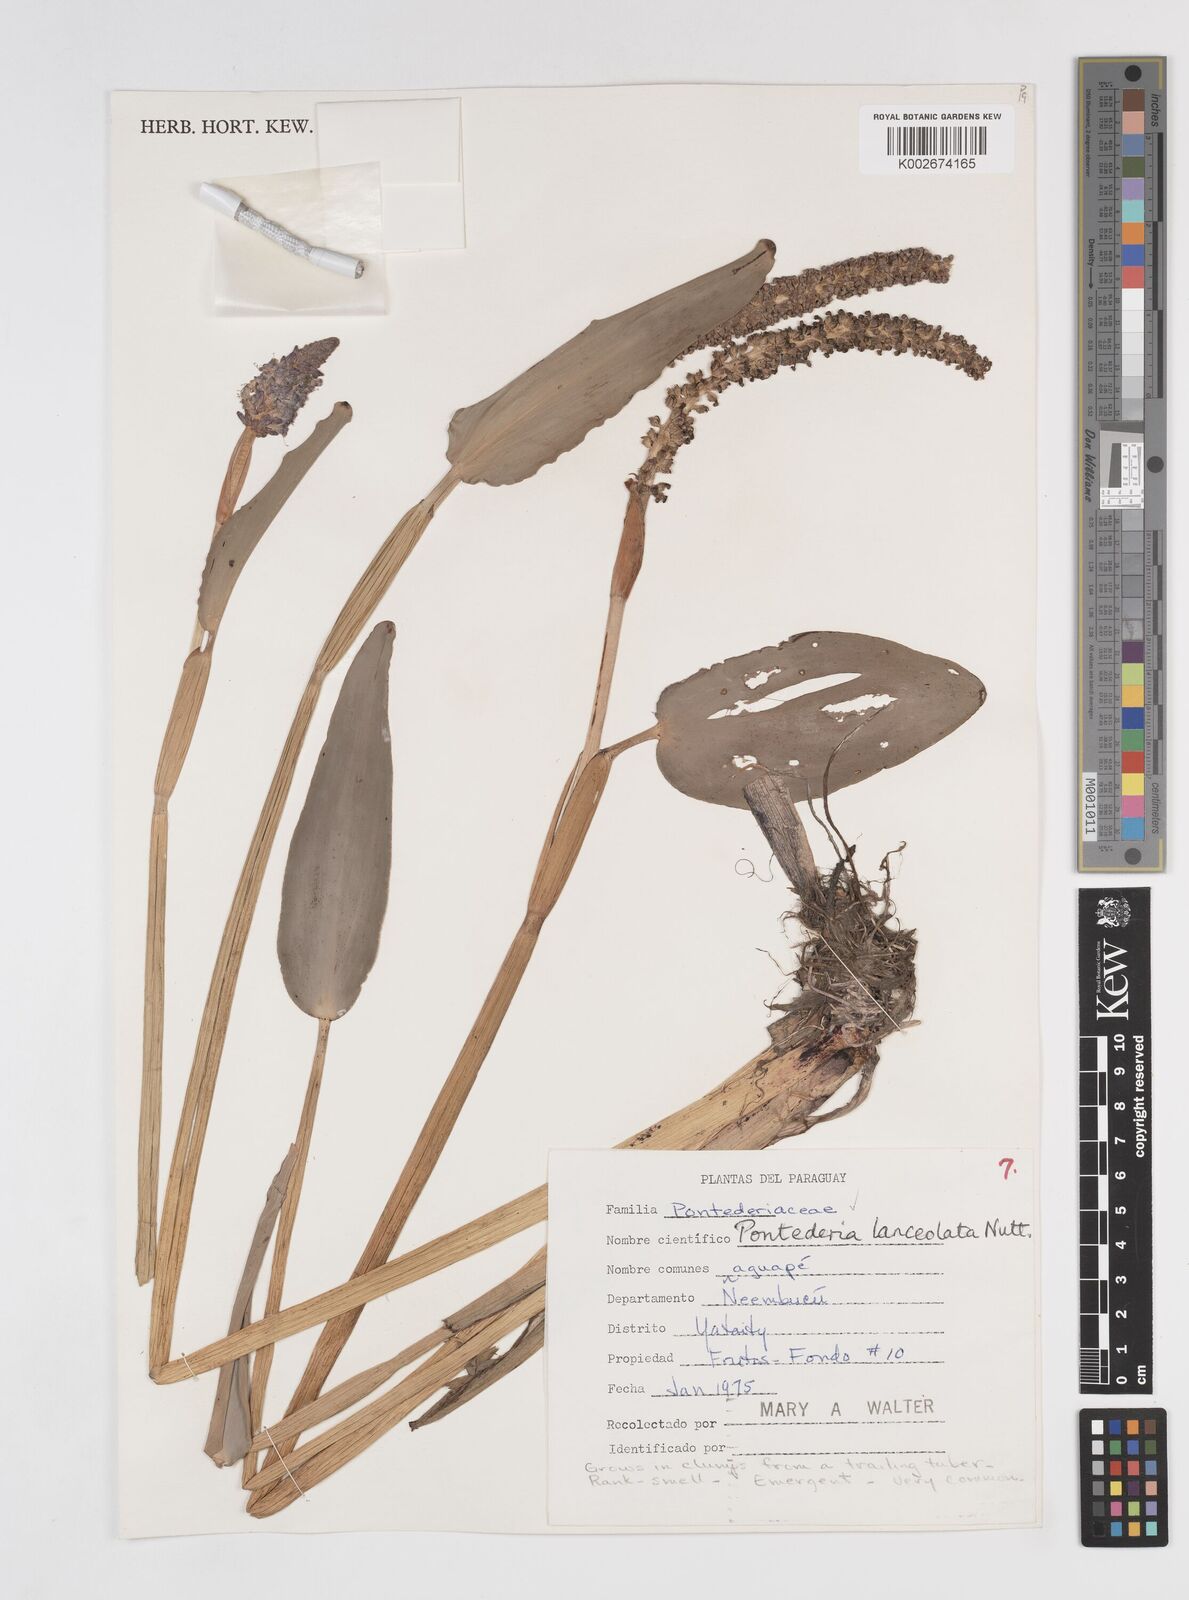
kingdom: Plantae
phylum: Tracheophyta
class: Liliopsida
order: Commelinales
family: Pontederiaceae
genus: Pontederia
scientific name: Pontederia
